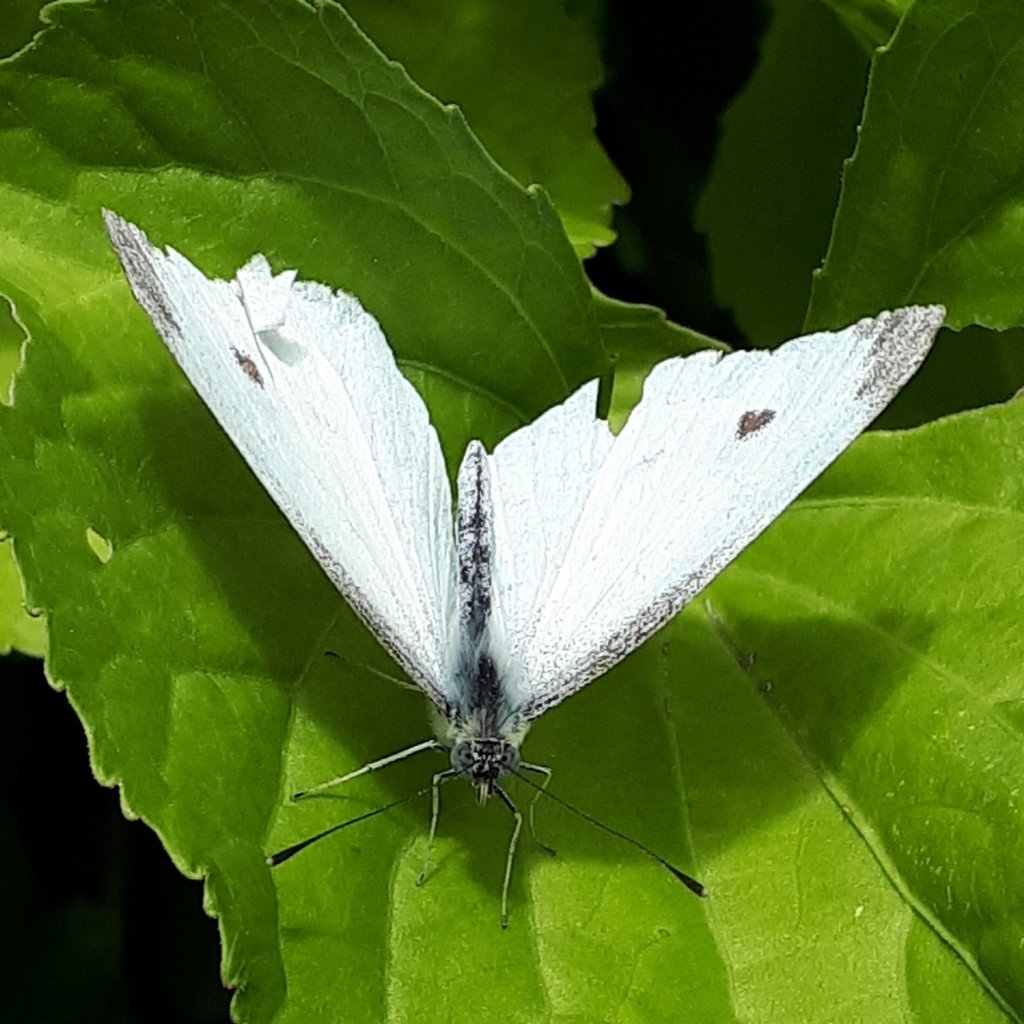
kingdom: Animalia
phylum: Arthropoda
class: Insecta
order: Lepidoptera
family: Pieridae
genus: Pieris
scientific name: Pieris rapae
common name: Cabbage White
